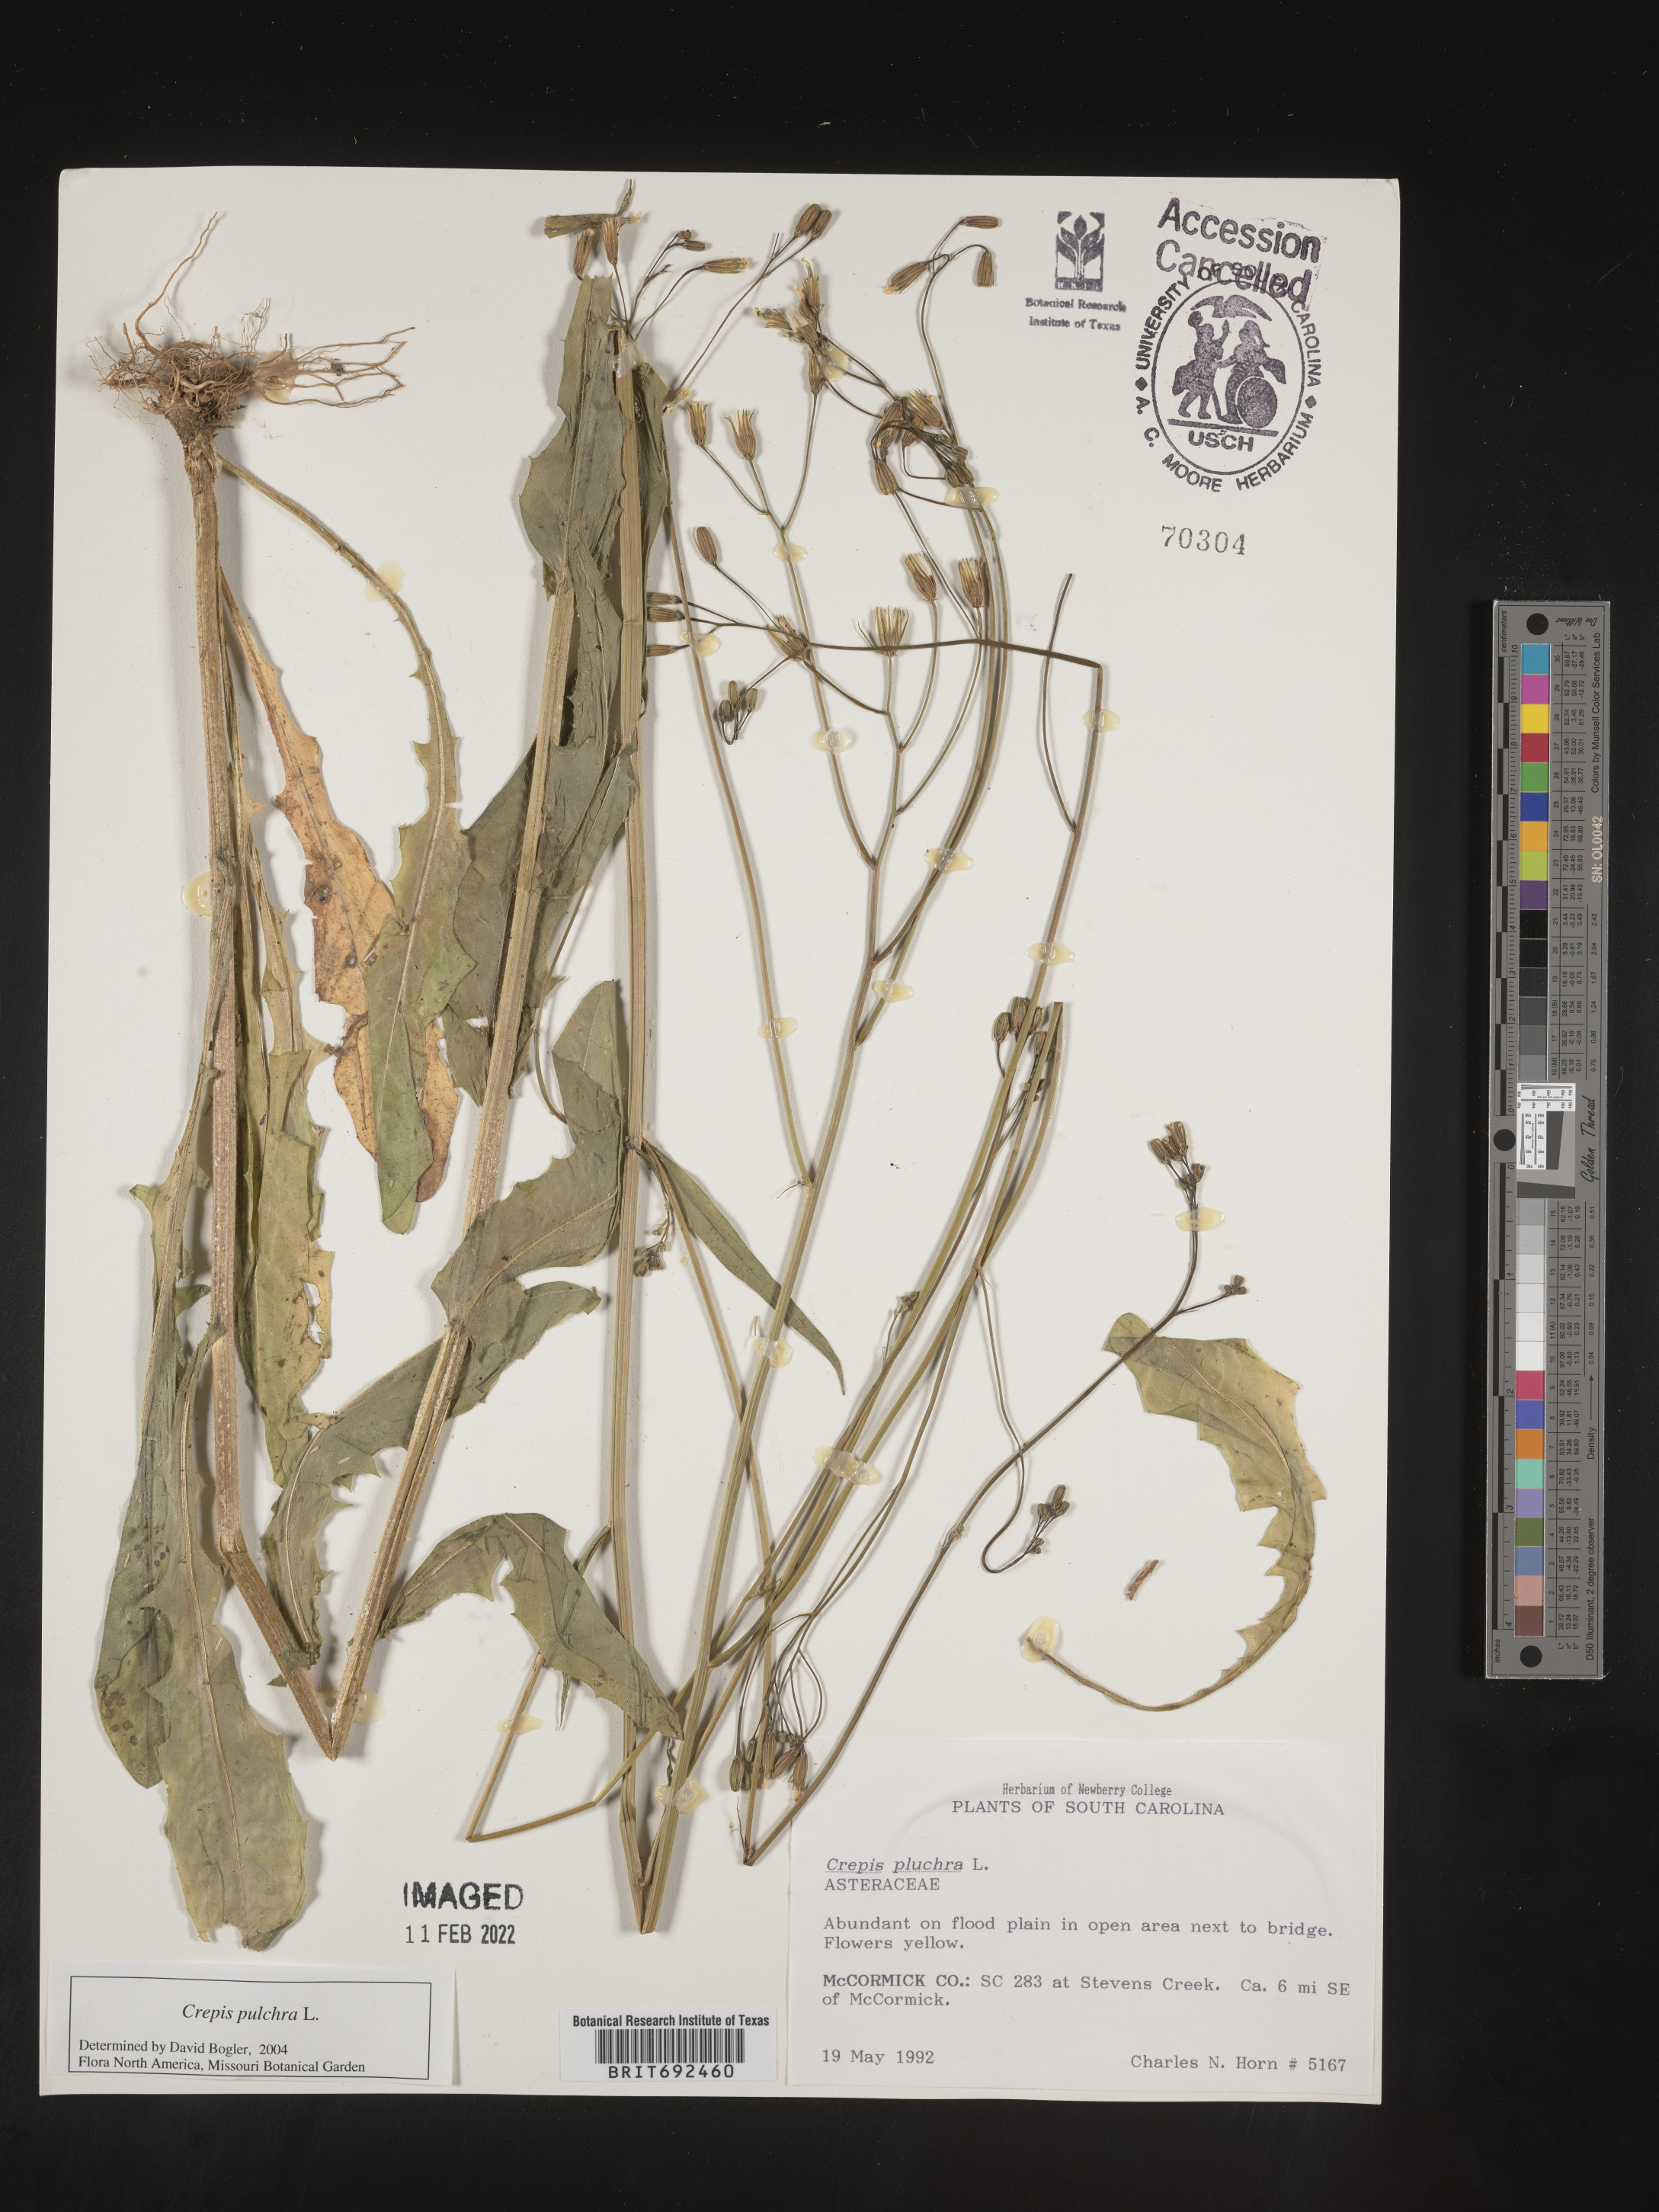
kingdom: Plantae
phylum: Tracheophyta
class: Magnoliopsida
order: Asterales
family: Asteraceae
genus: Crepis
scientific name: Crepis pulchra
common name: Hawk's-beard
